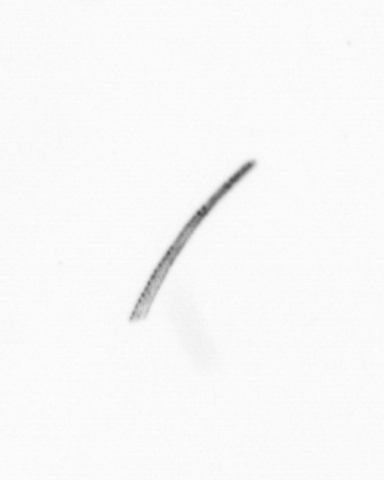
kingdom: Chromista
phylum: Ochrophyta
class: Bacillariophyceae
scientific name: Bacillariophyceae
